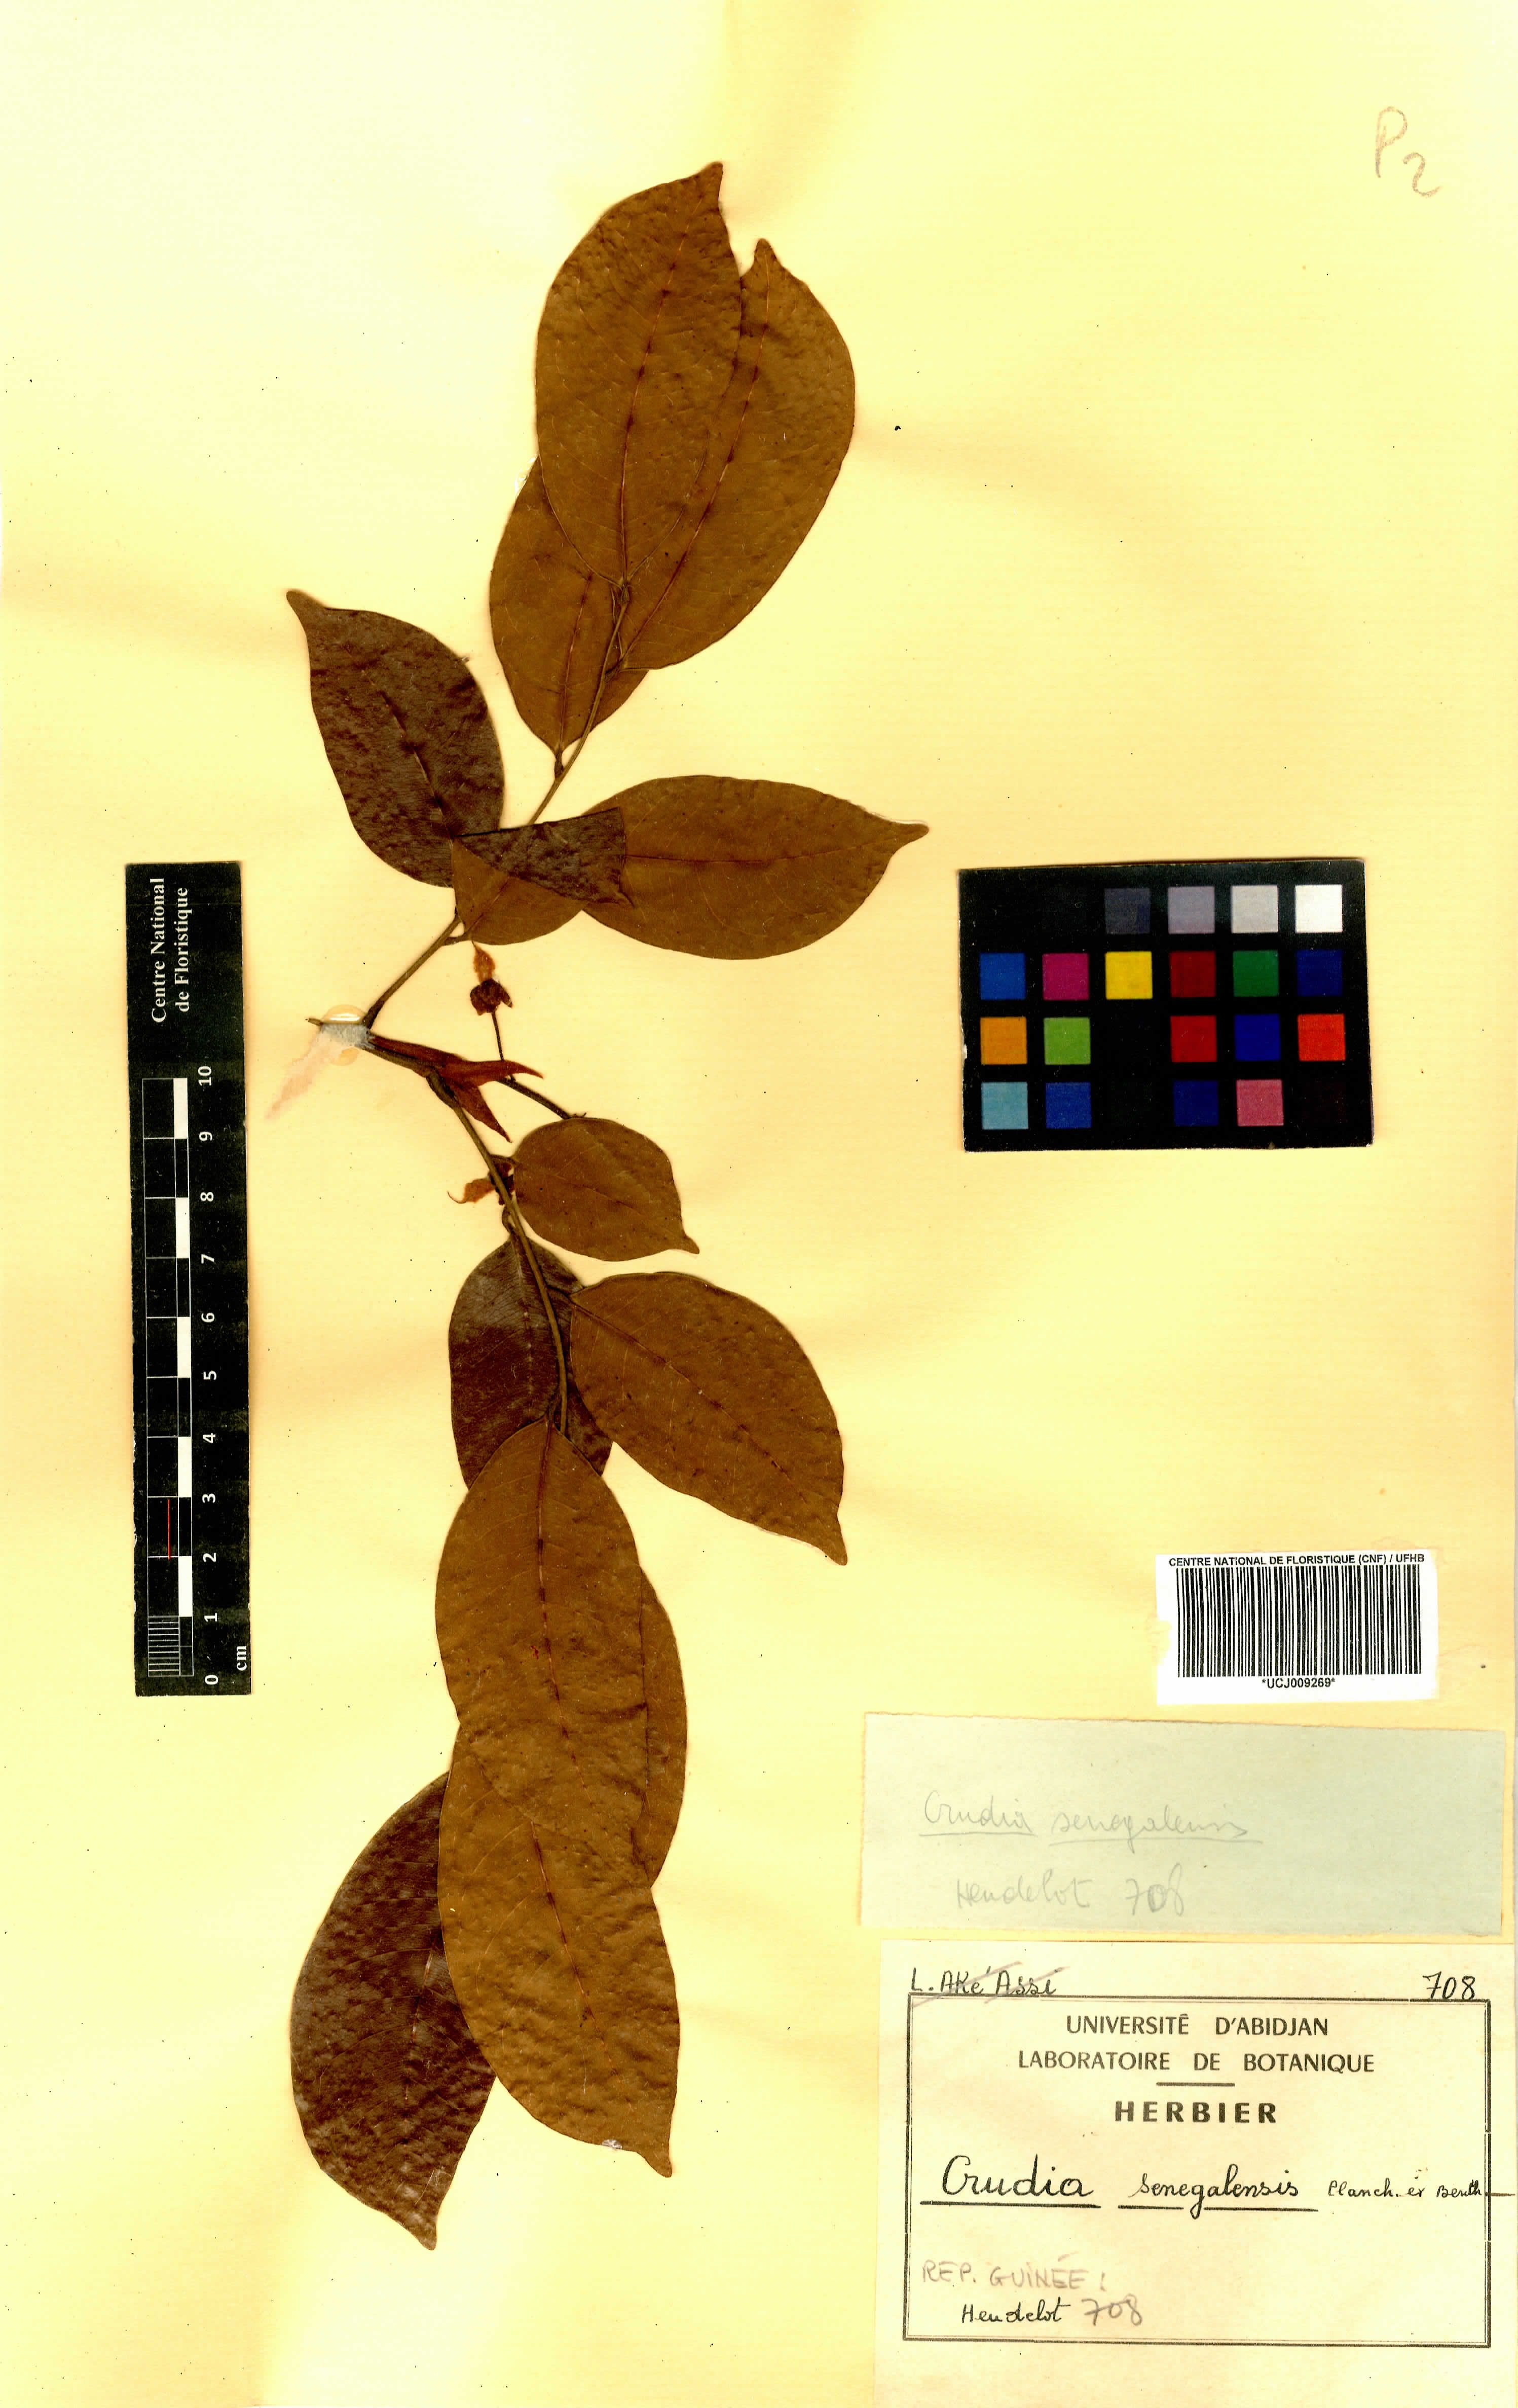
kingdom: Plantae
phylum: Tracheophyta
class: Magnoliopsida
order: Fabales
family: Fabaceae
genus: Crudia
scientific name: Crudia senegalensis
